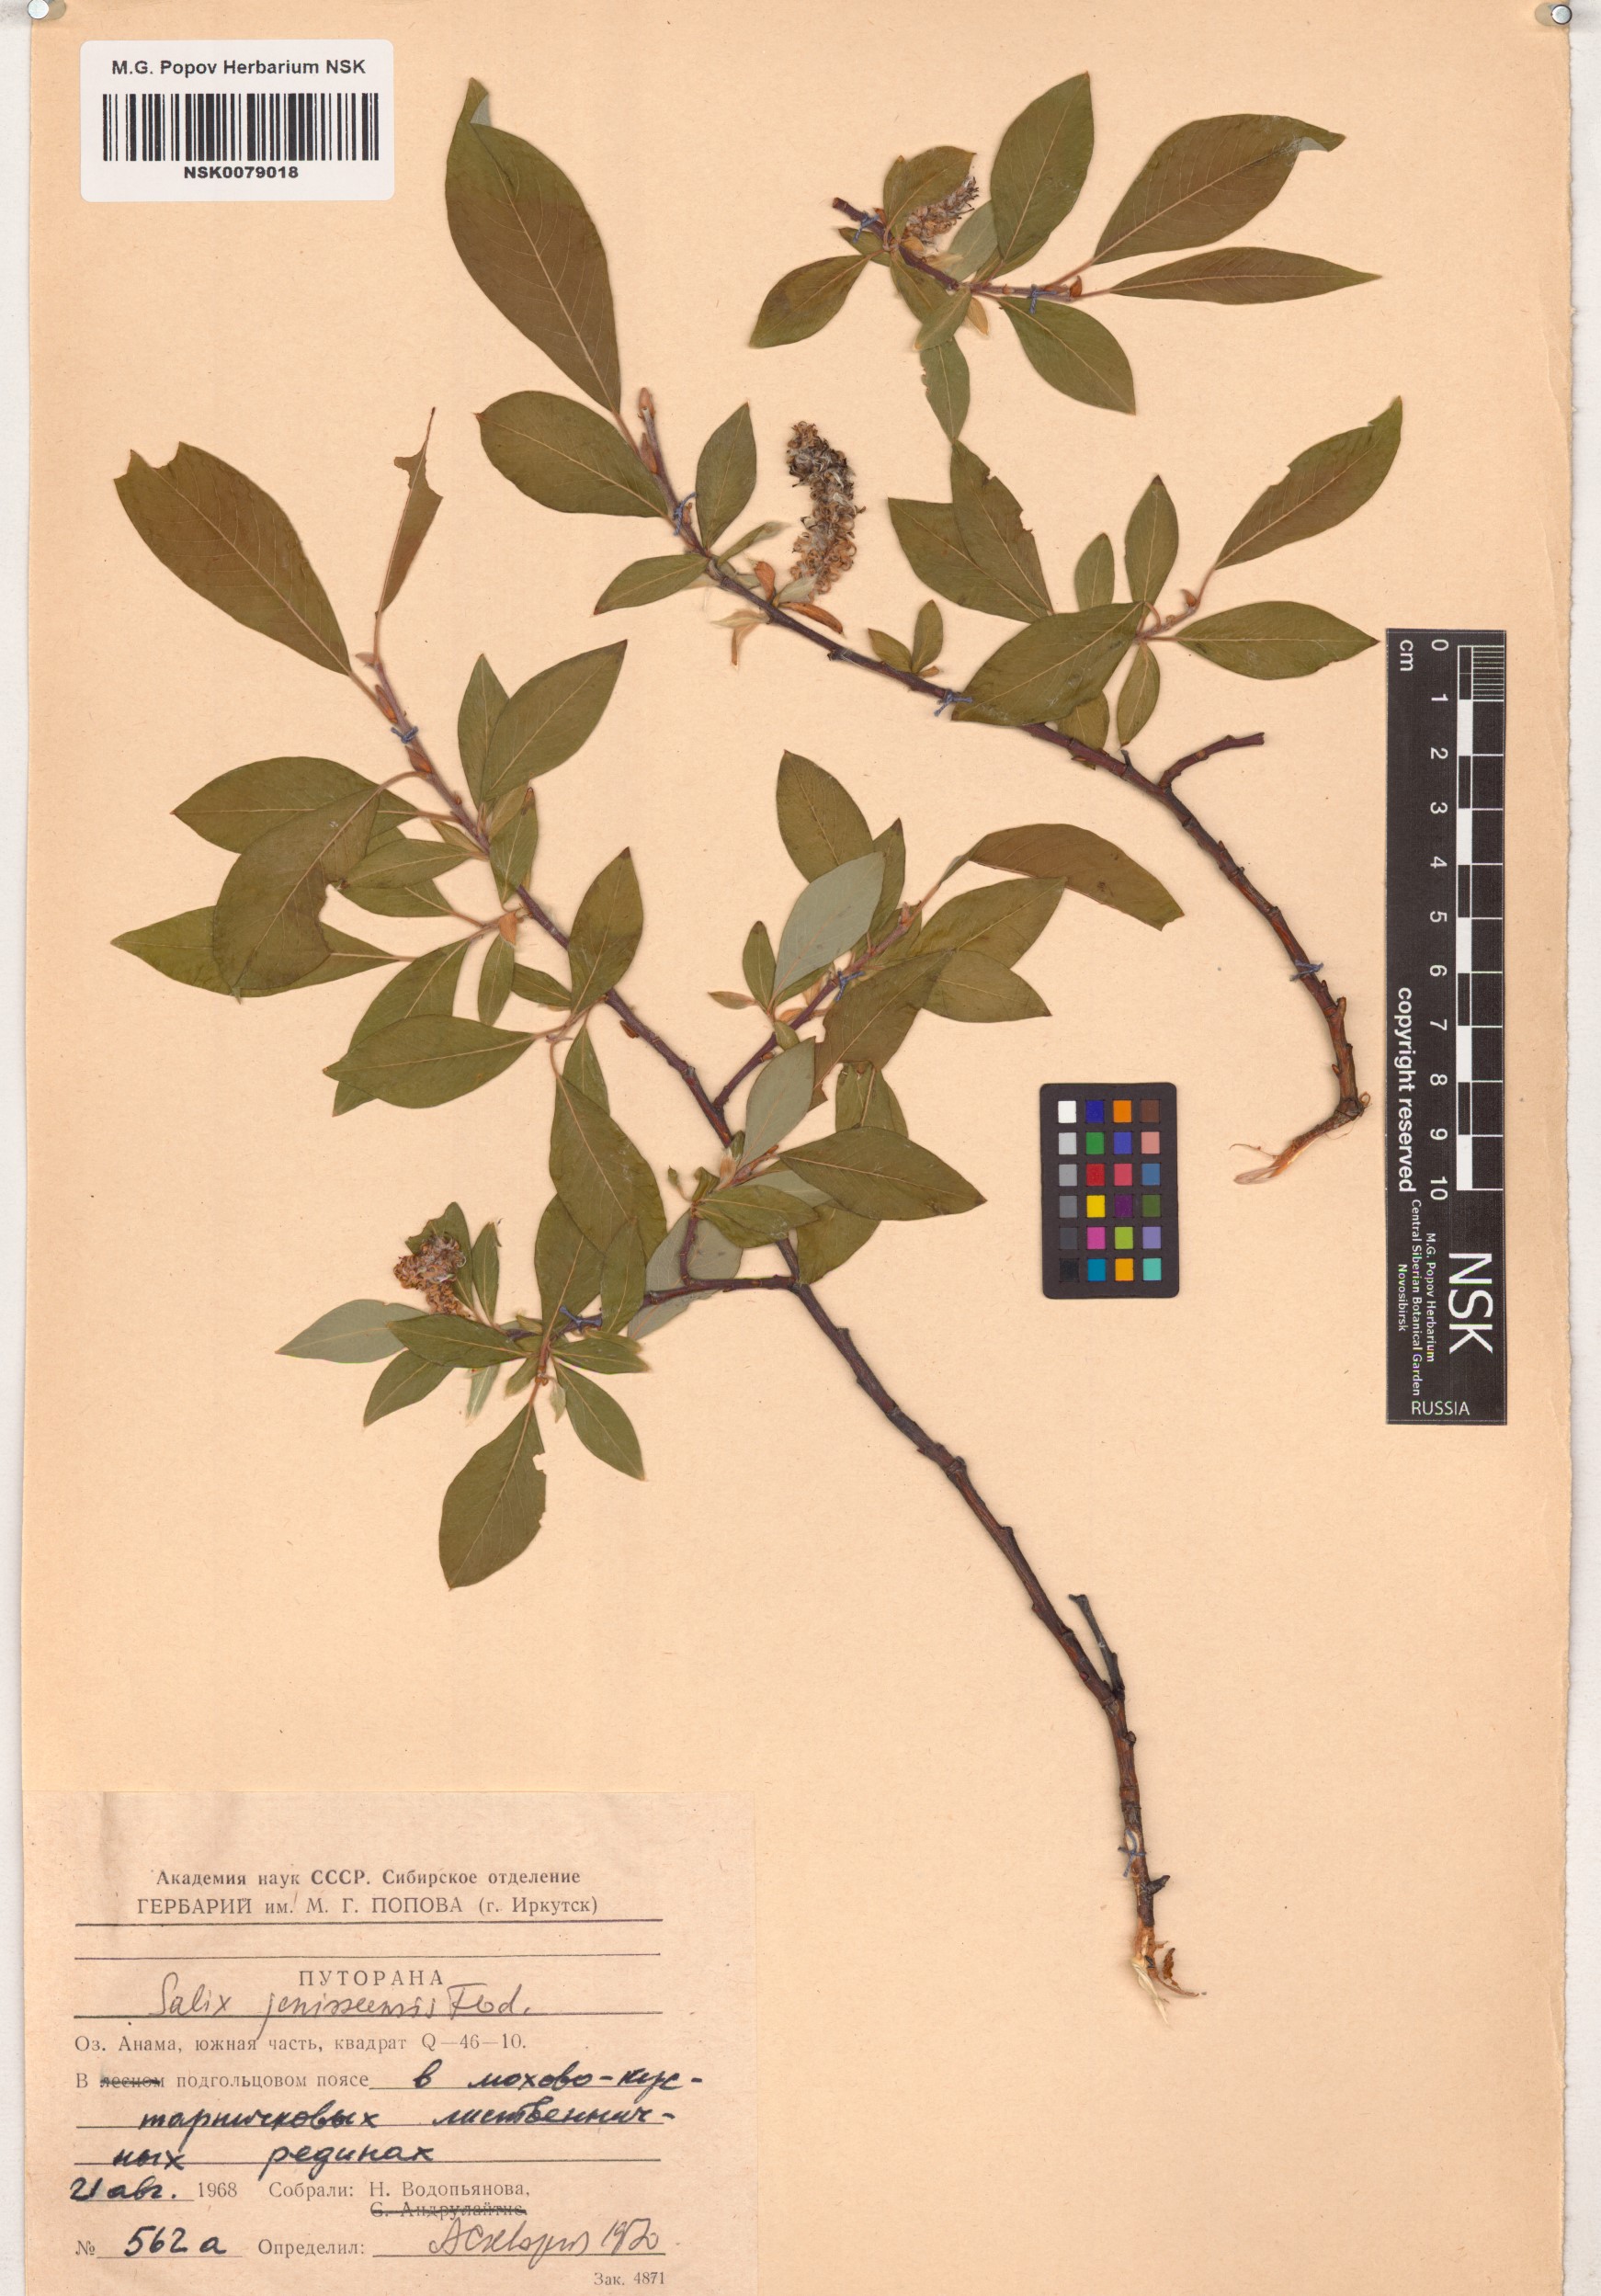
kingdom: Plantae
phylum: Tracheophyta
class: Magnoliopsida
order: Malpighiales
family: Salicaceae
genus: Salix
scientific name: Salix jenisseensis
